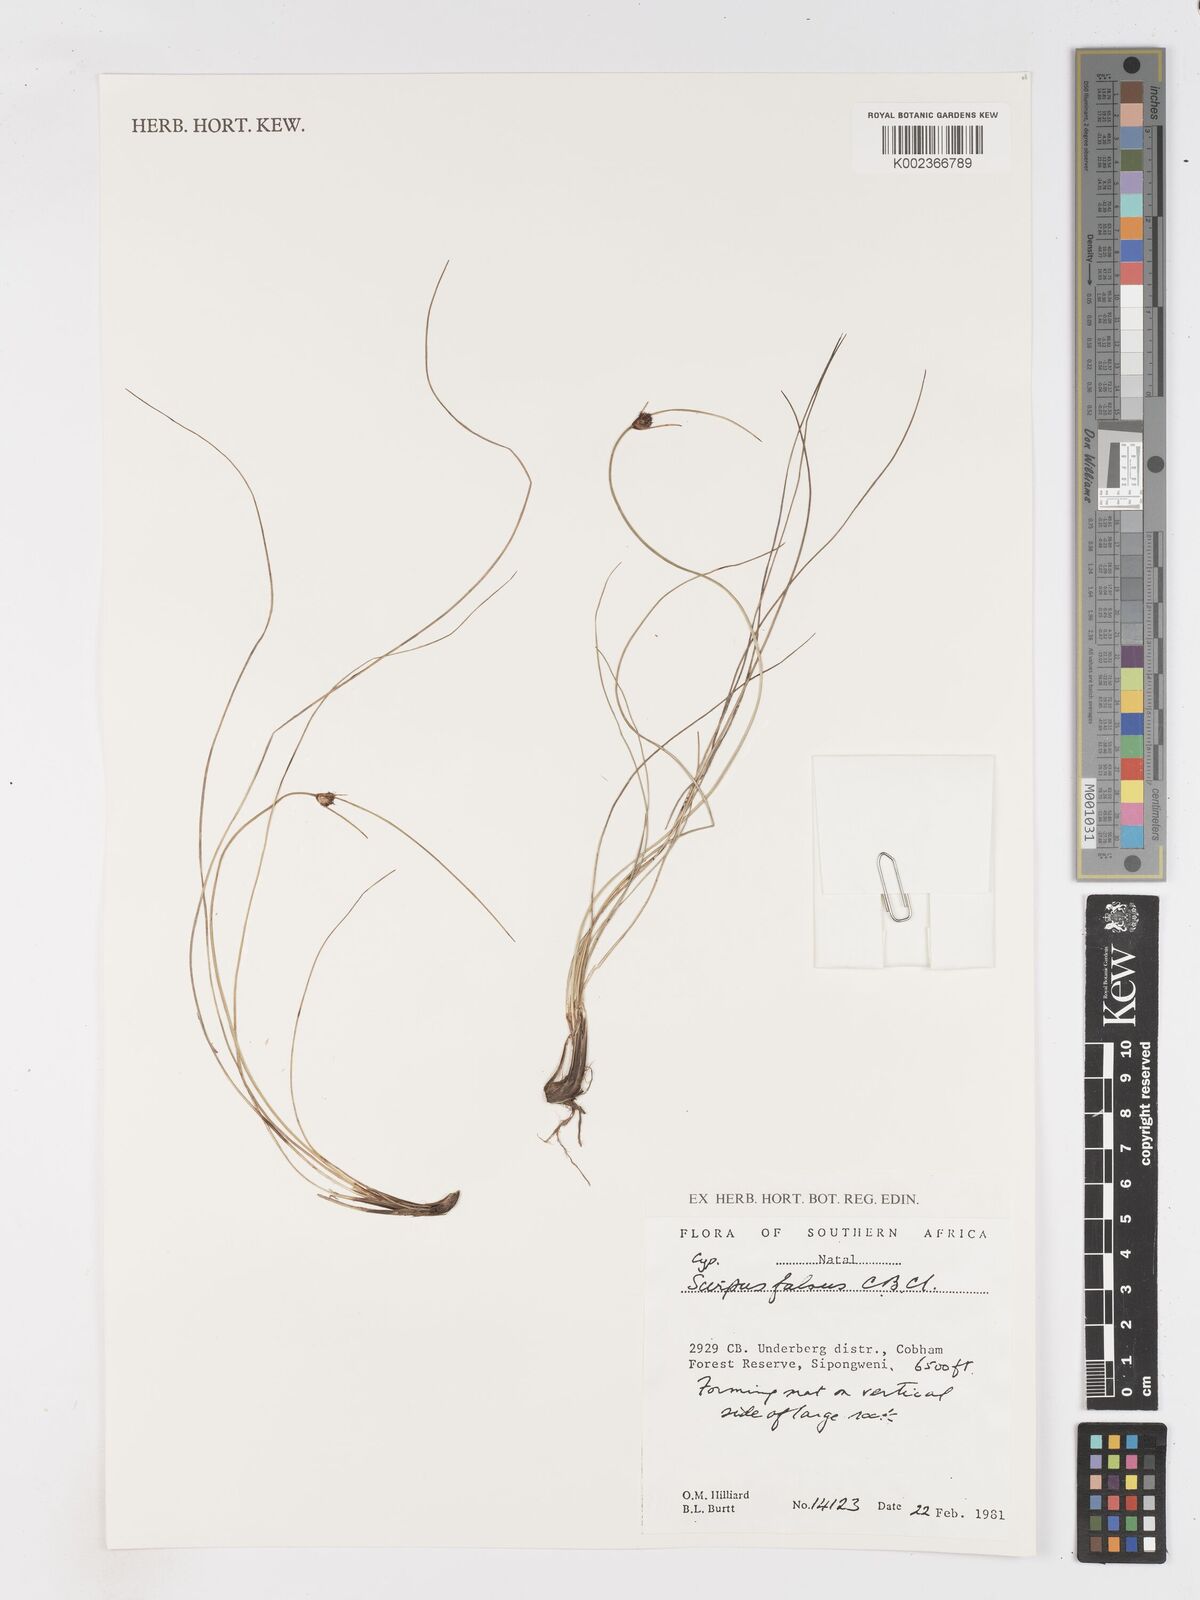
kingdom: Plantae
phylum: Tracheophyta
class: Liliopsida
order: Poales
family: Cyperaceae
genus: Dracoscirpoides
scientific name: Dracoscirpoides falsa
